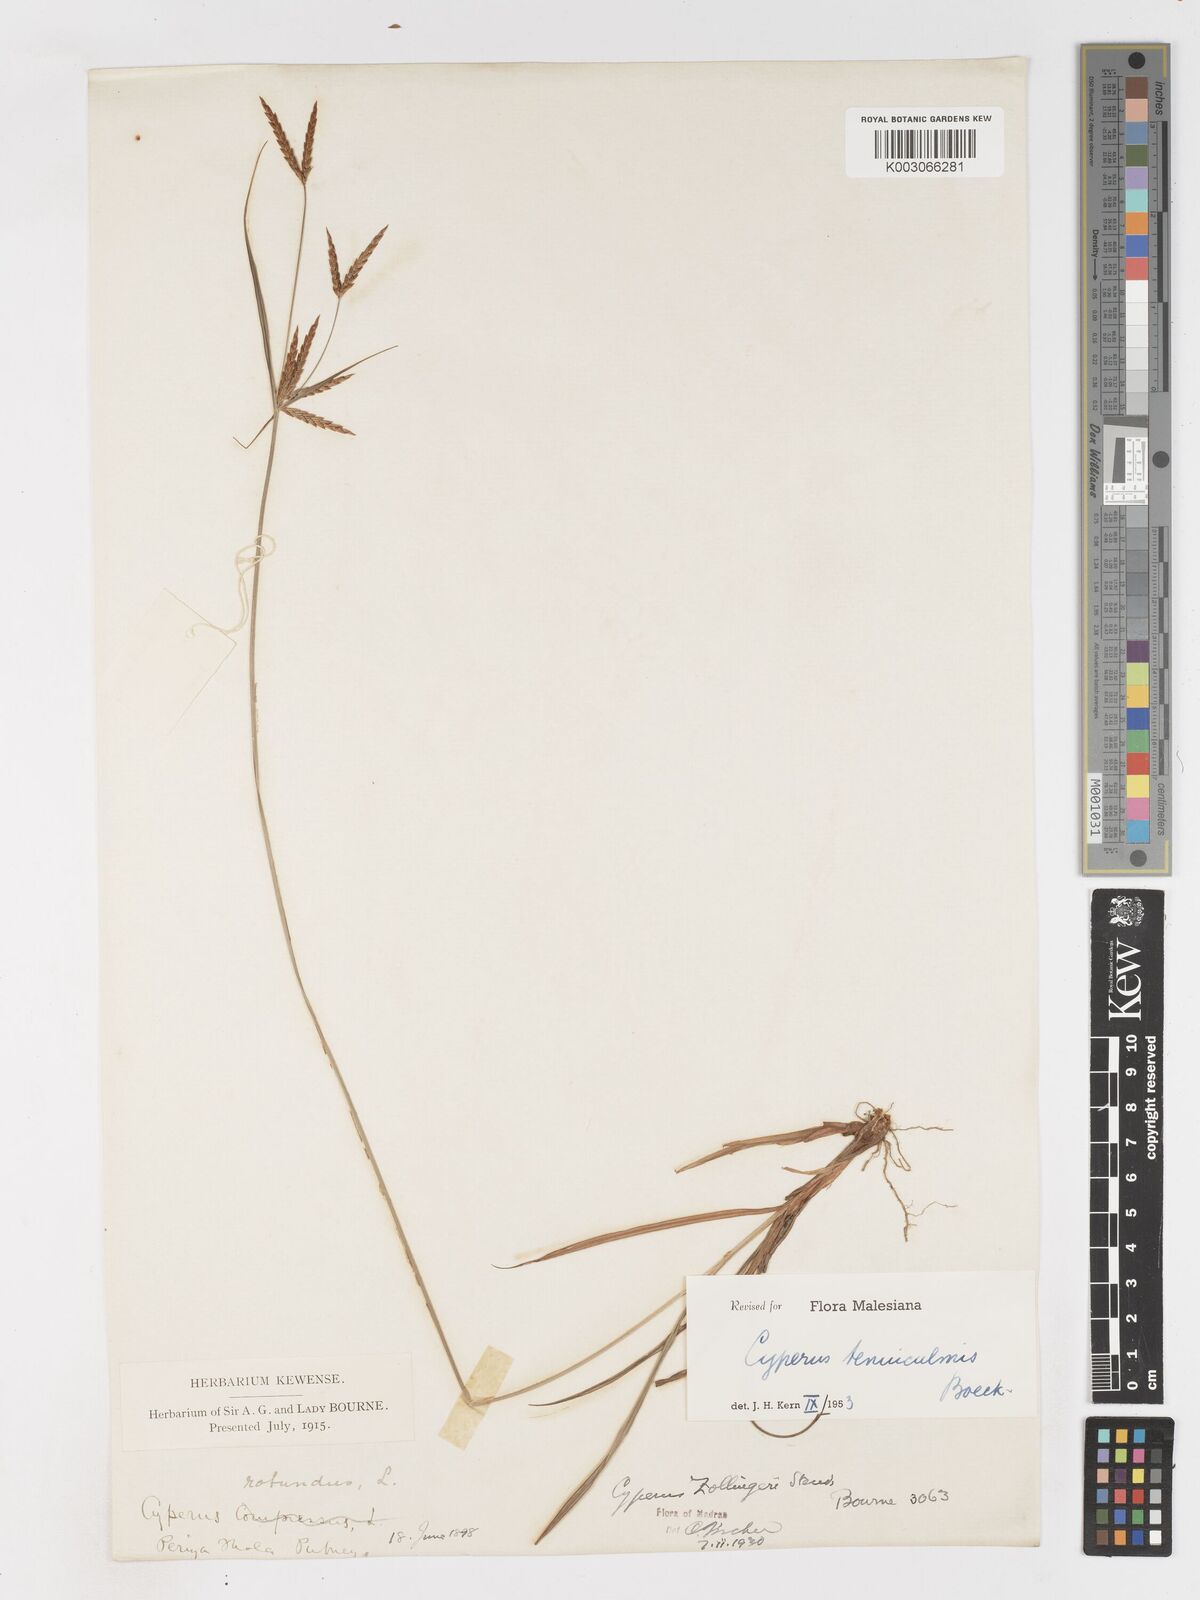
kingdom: Plantae
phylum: Tracheophyta
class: Liliopsida
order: Poales
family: Cyperaceae
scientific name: Cyperaceae
